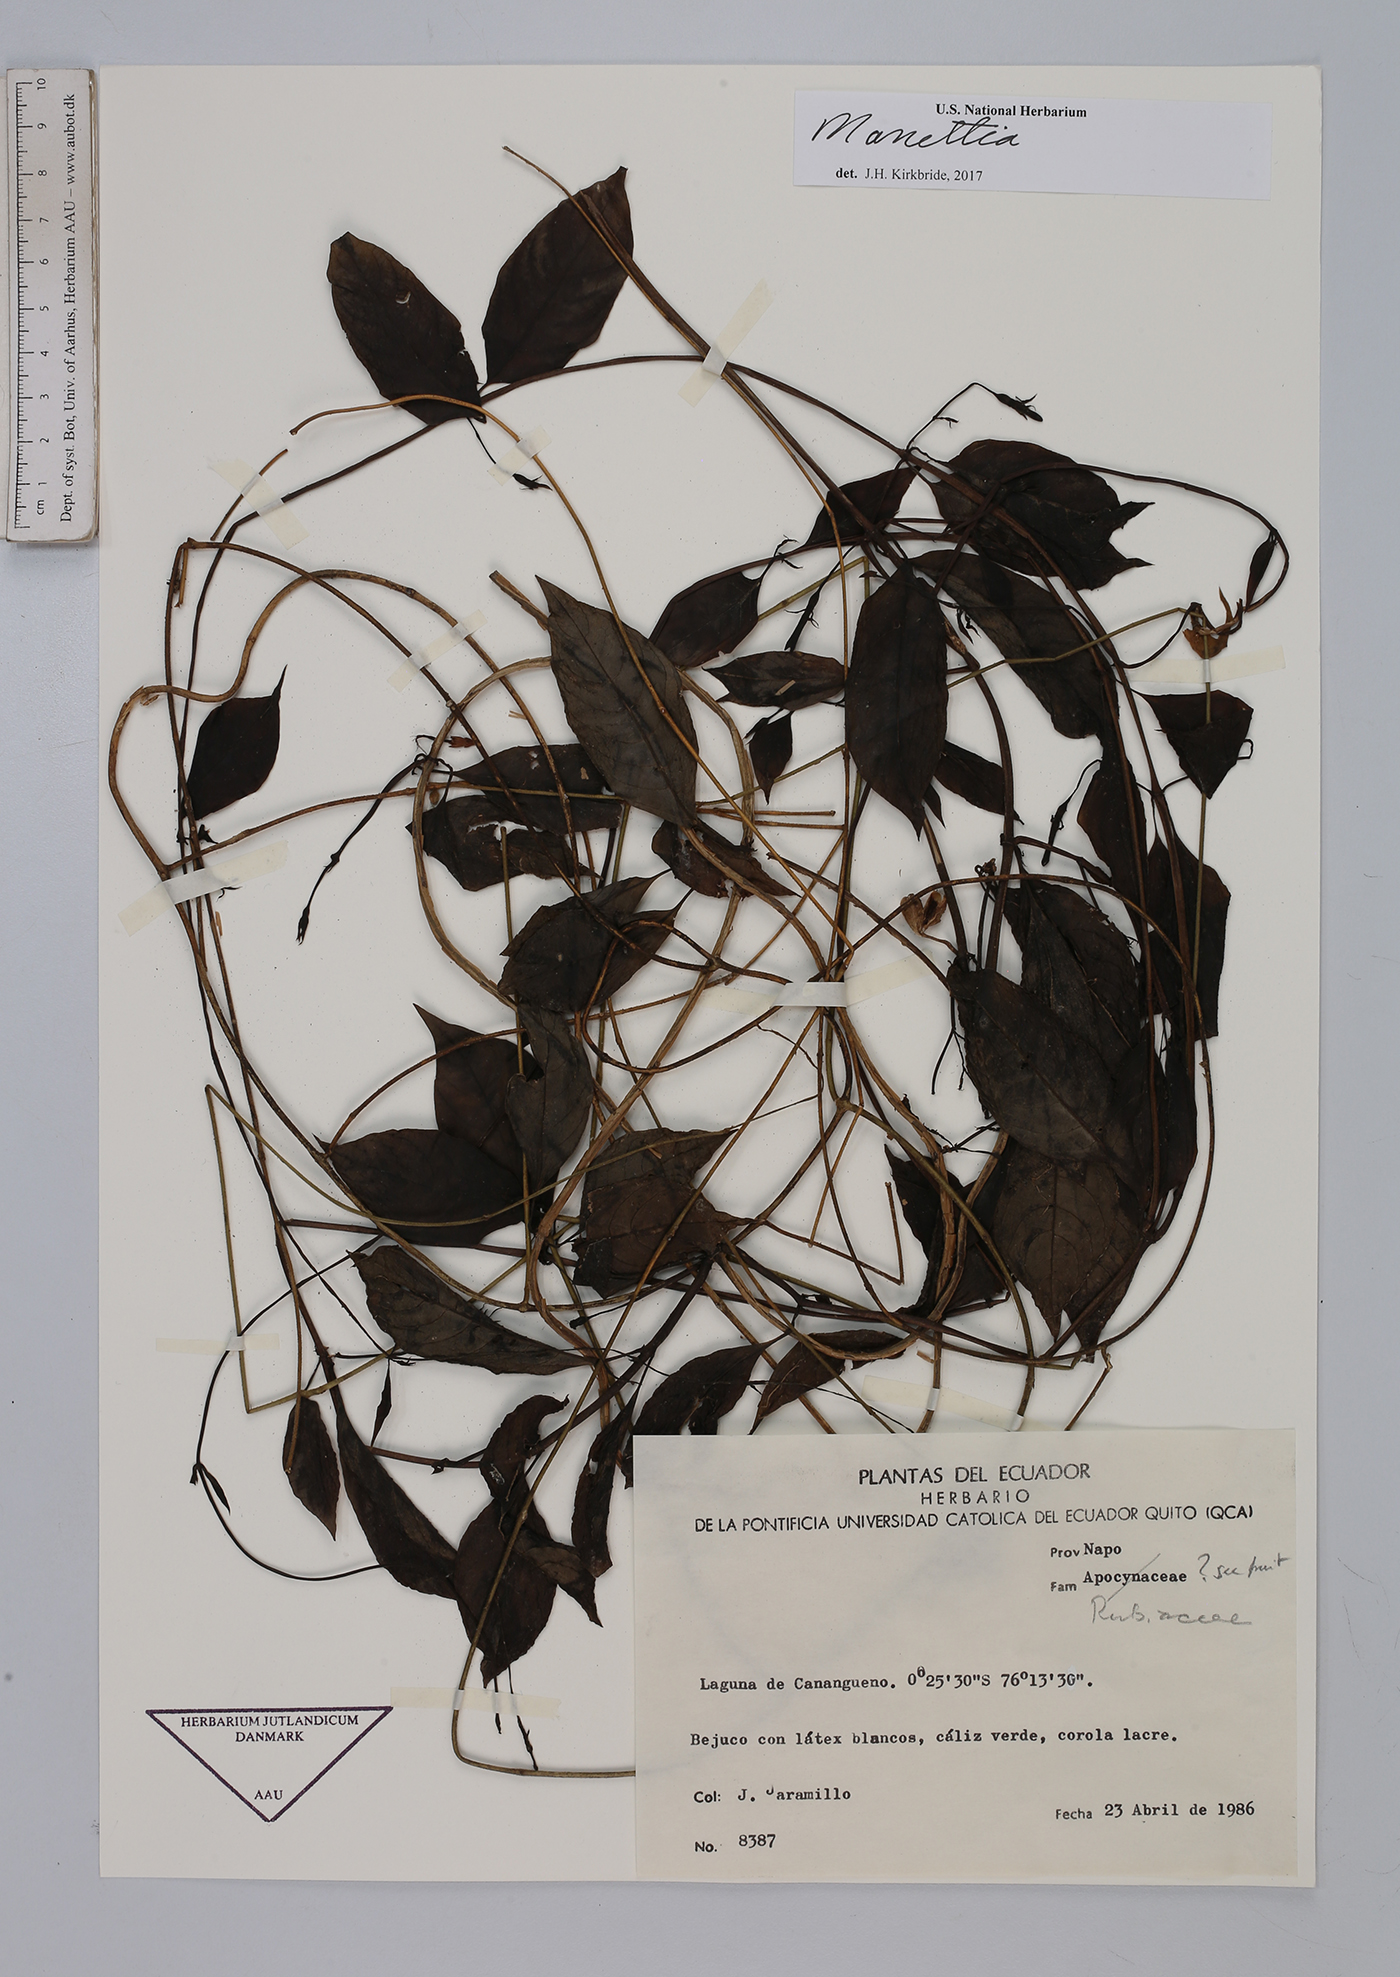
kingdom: Plantae
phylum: Tracheophyta
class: Magnoliopsida
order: Gentianales
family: Rubiaceae
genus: Manettia
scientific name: Manettia
